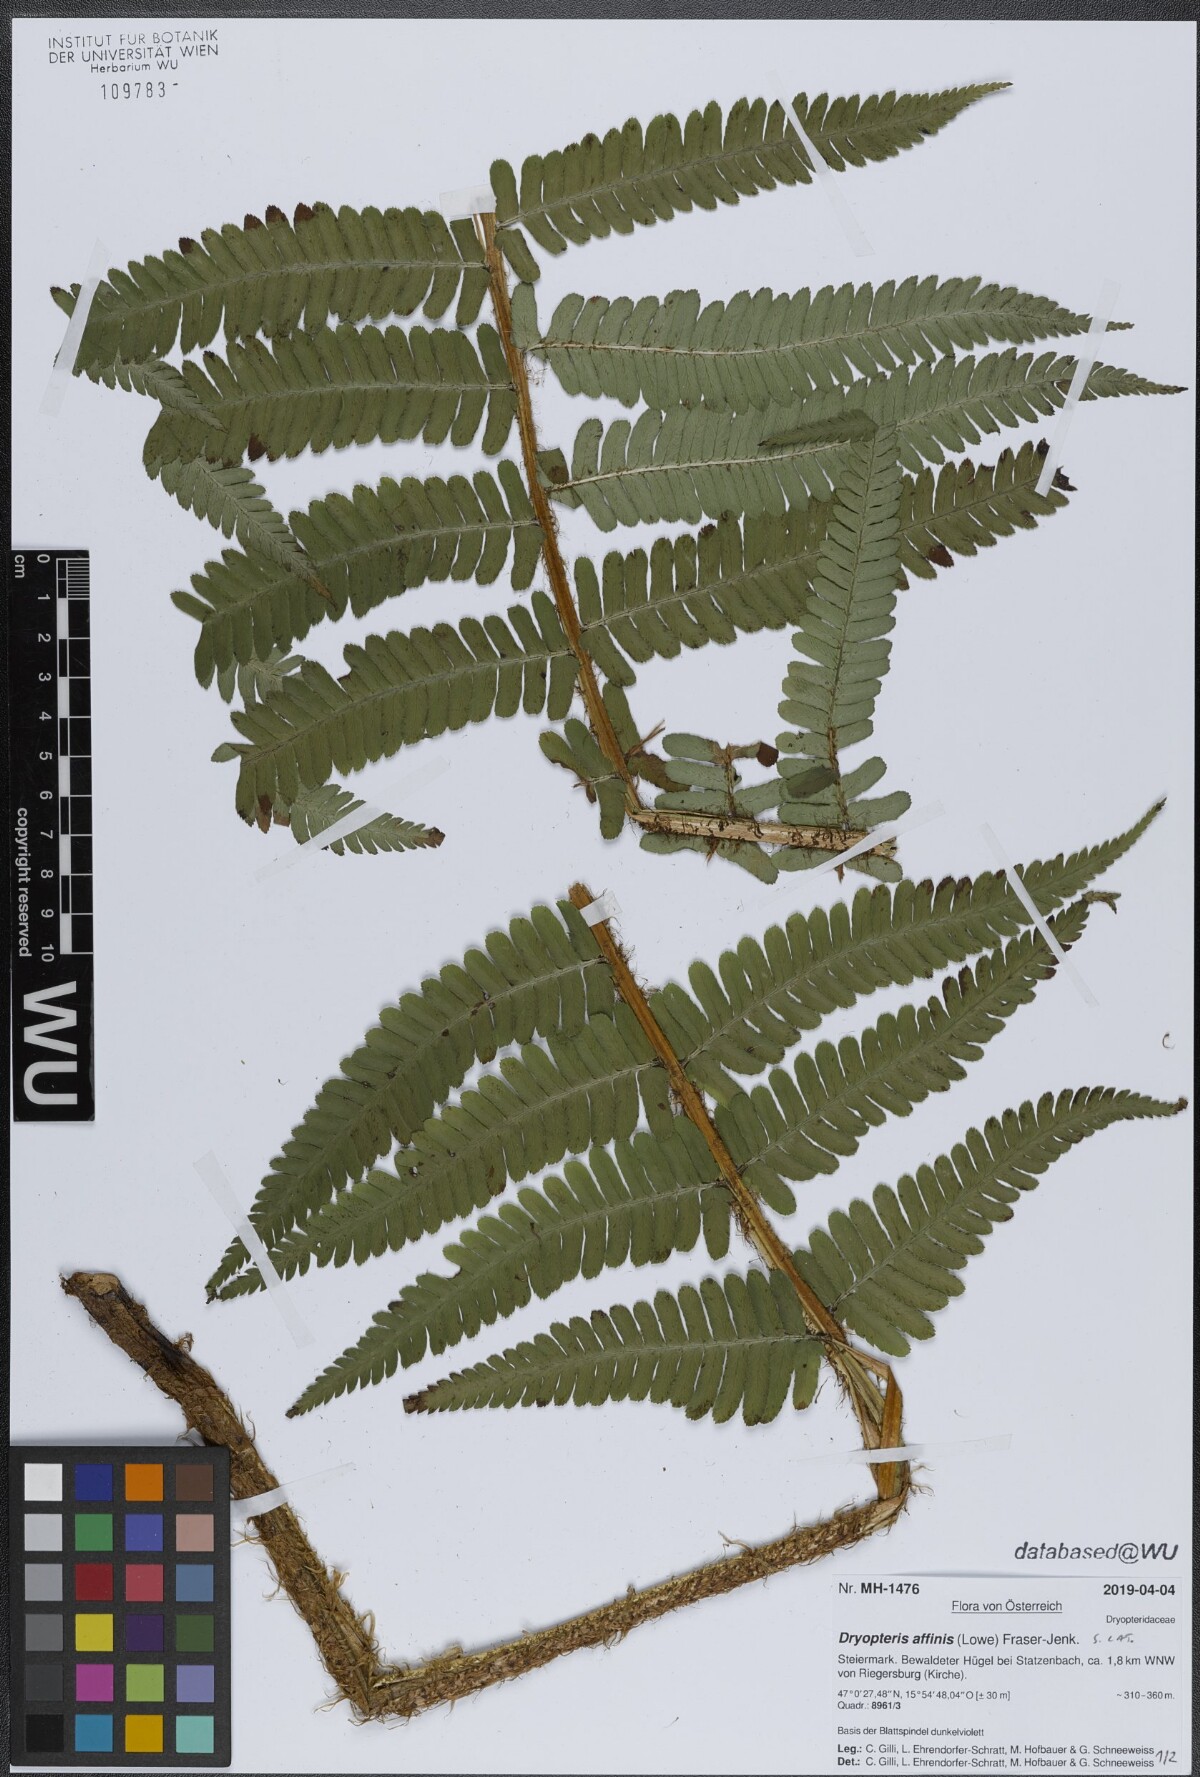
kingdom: Plantae
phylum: Tracheophyta
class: Polypodiopsida
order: Polypodiales
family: Dryopteridaceae
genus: Dryopteris
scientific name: Dryopteris affinis
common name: Scaly male fern
